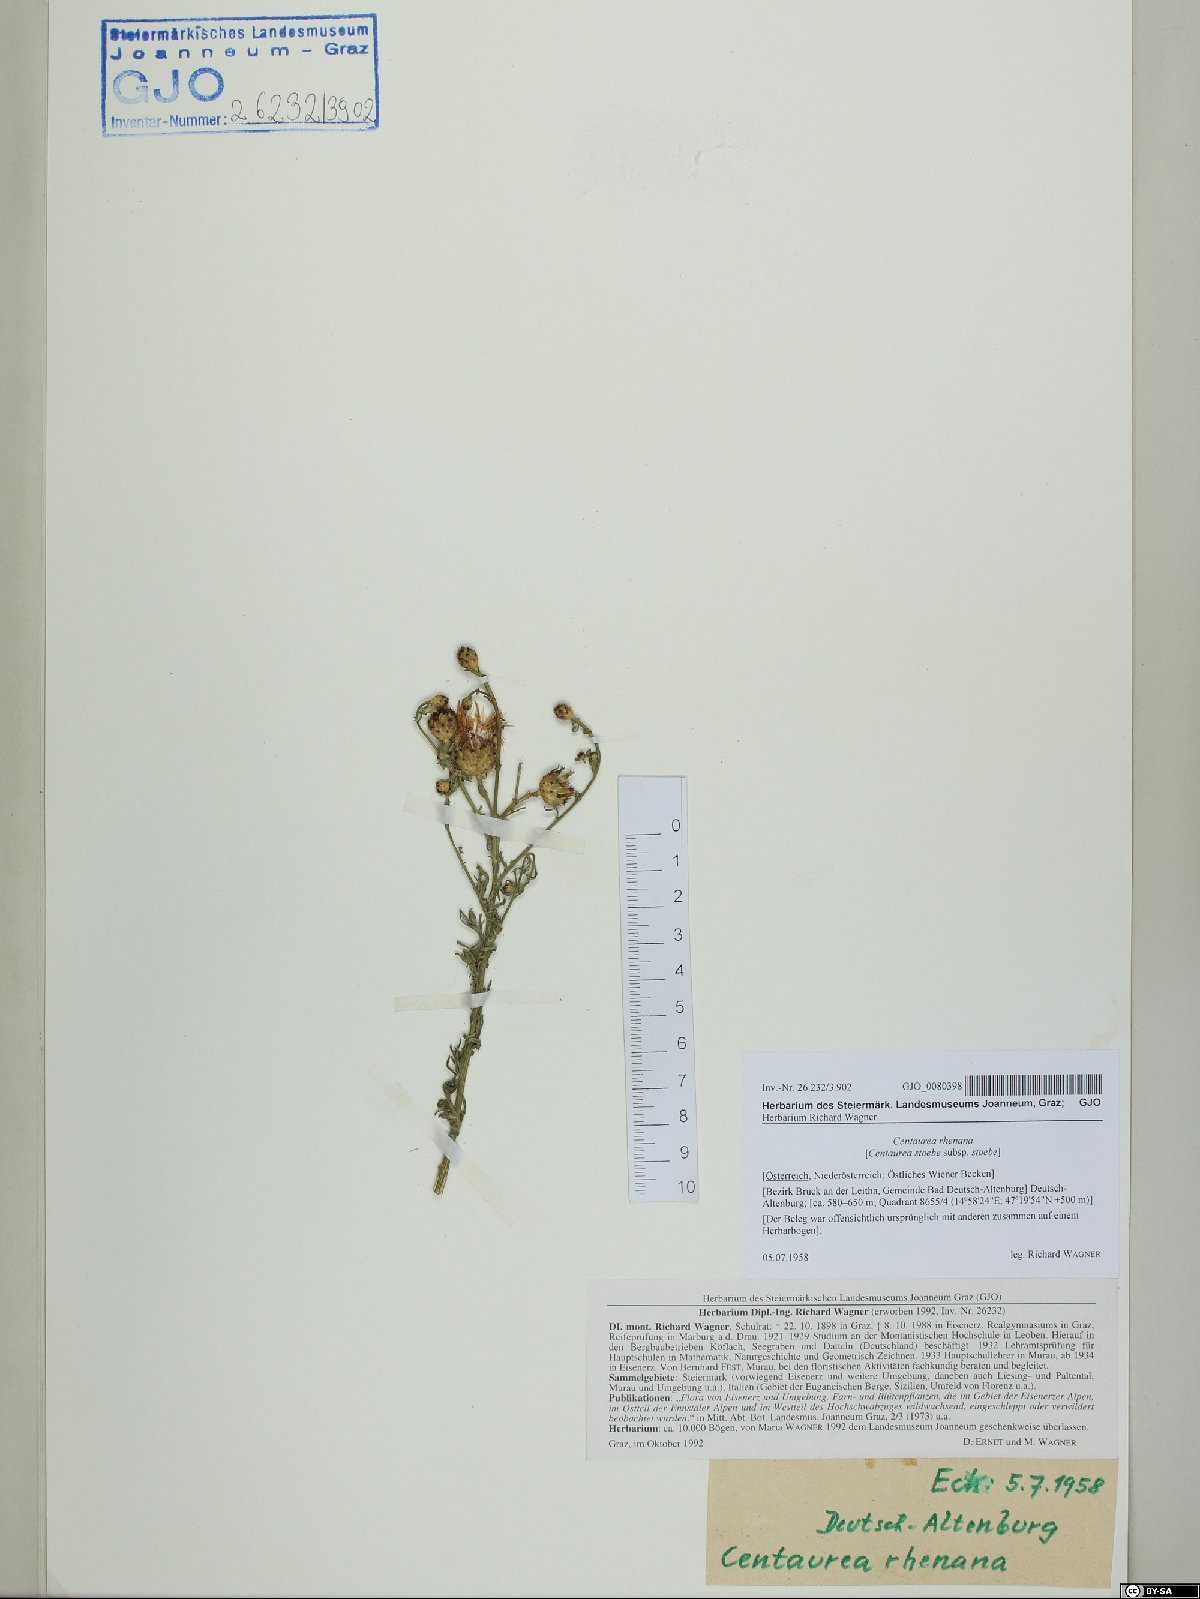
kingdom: Plantae
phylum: Tracheophyta
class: Magnoliopsida
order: Asterales
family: Asteraceae
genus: Centaurea
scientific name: Centaurea stoebe
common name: Spotted knapweed
